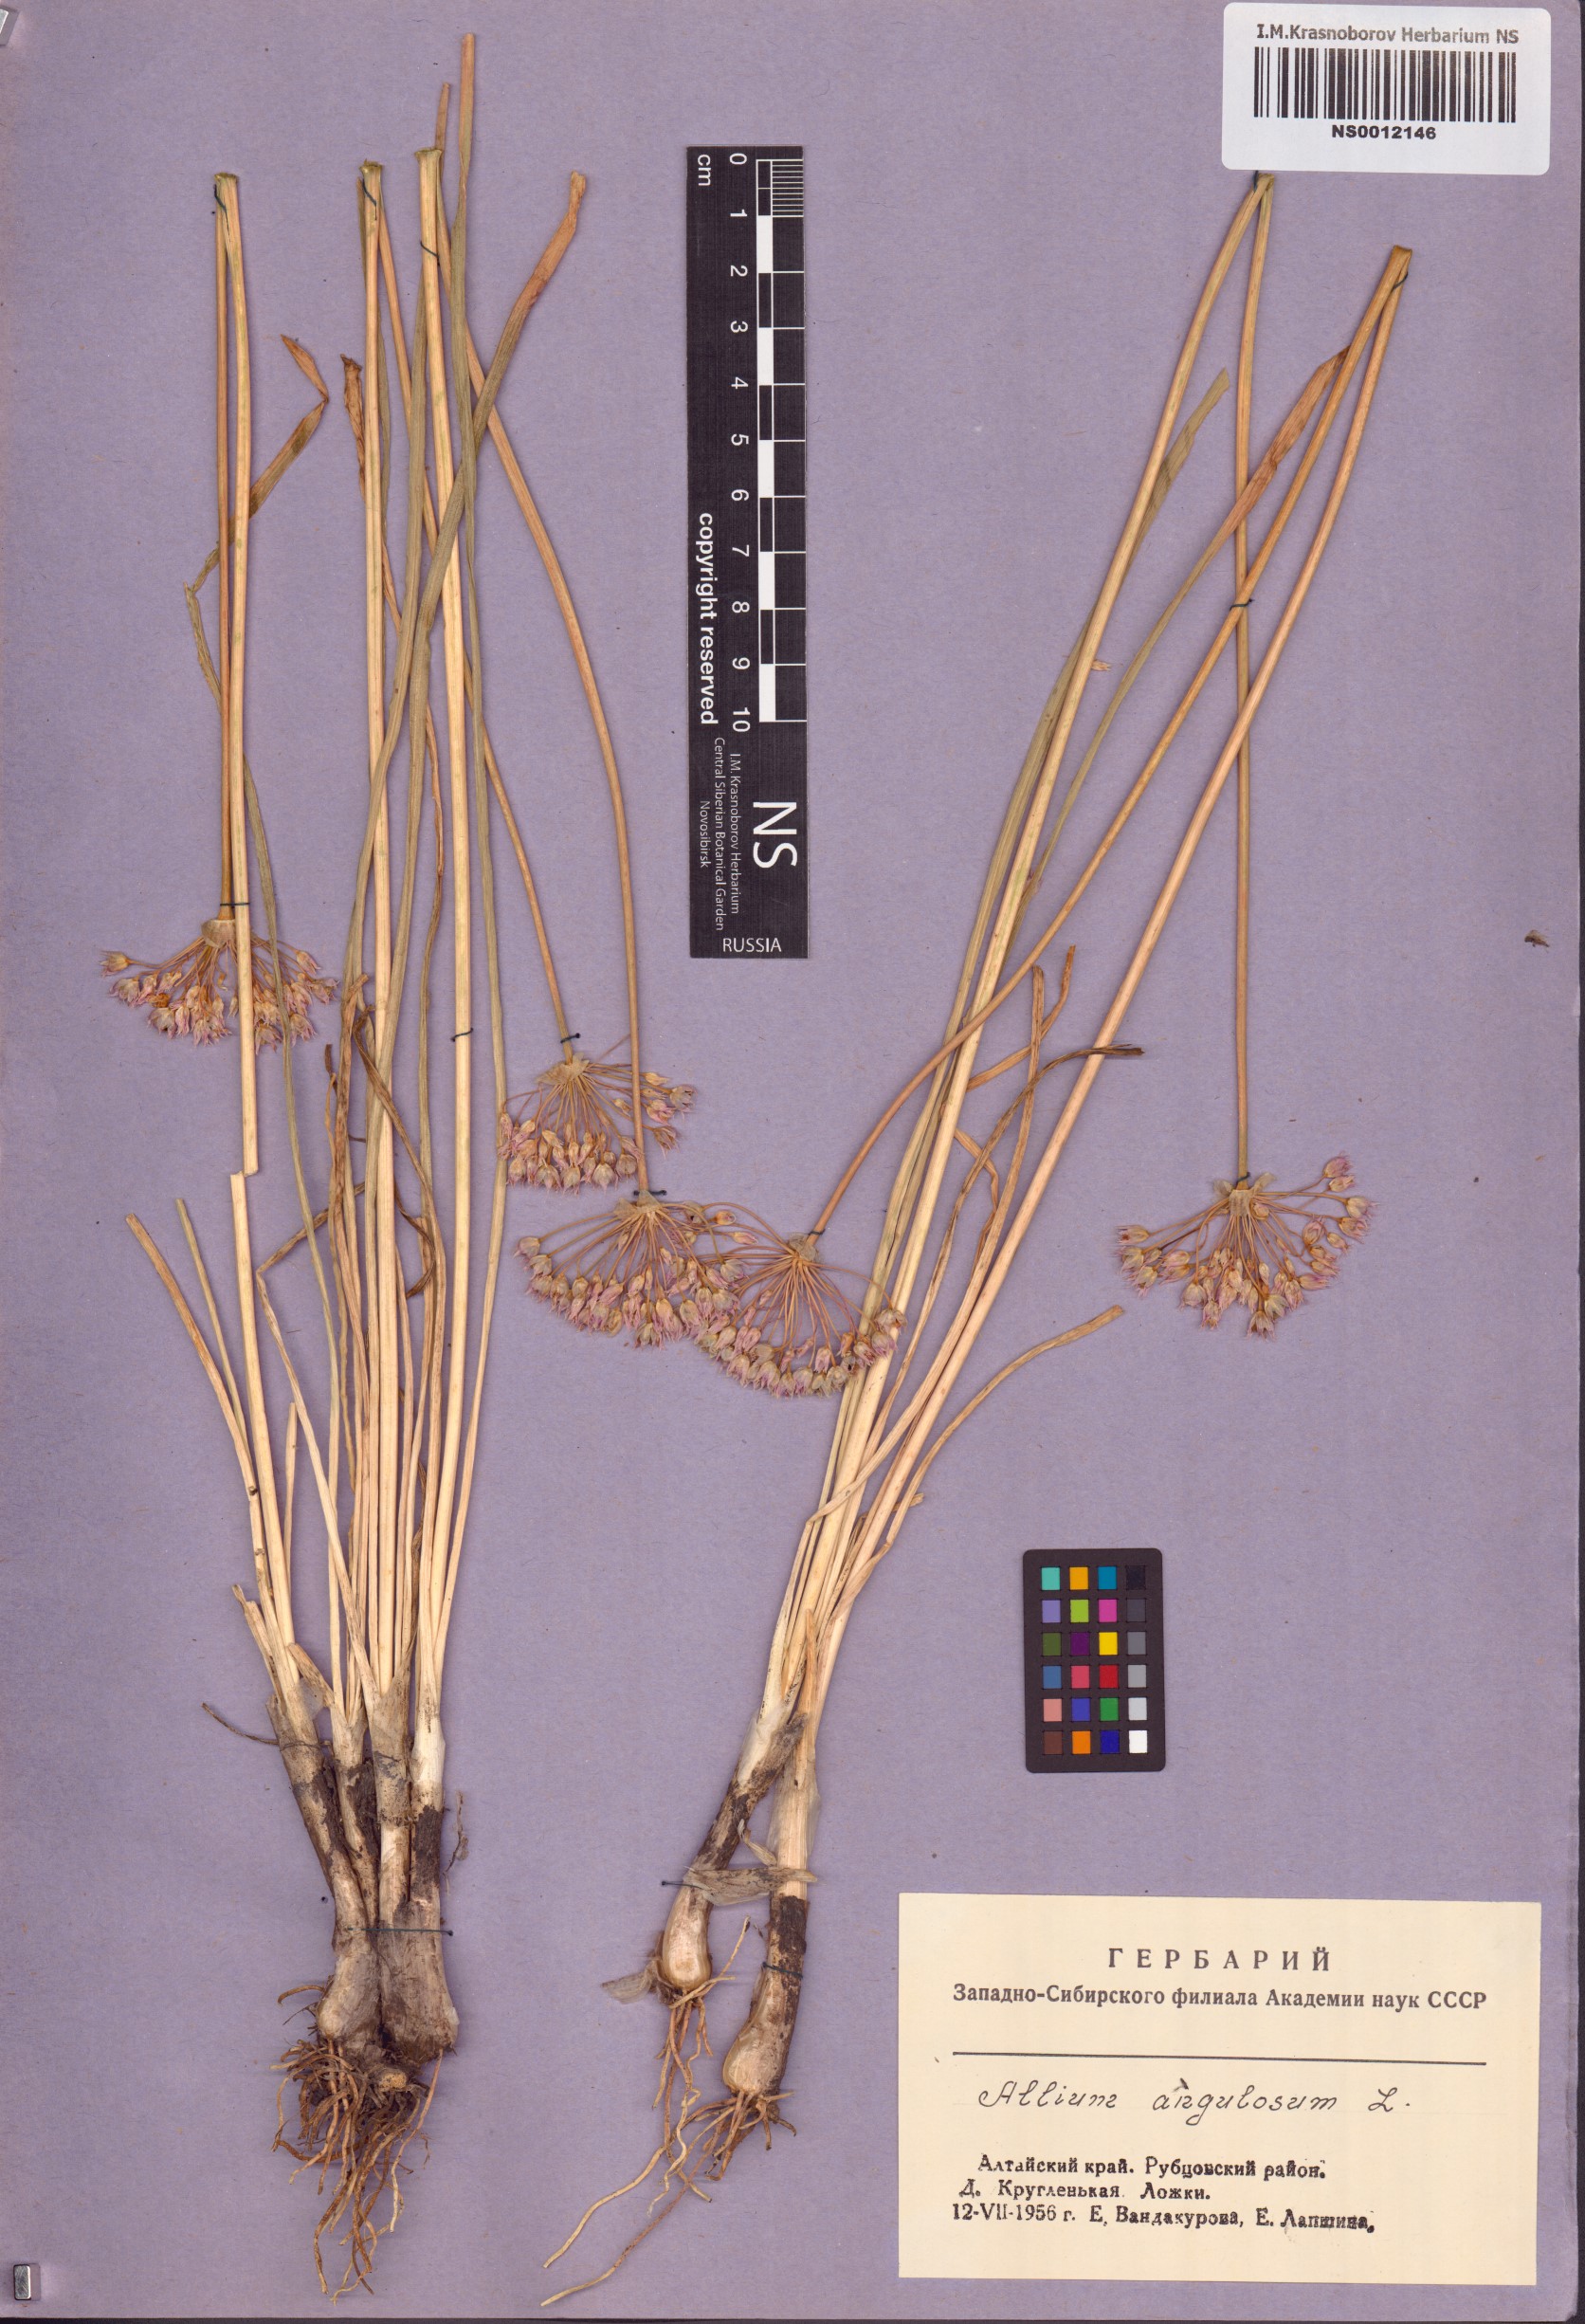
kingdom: Plantae
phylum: Tracheophyta
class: Liliopsida
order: Asparagales
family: Amaryllidaceae
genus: Allium
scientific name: Allium angulosum
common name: Mouse garlic
